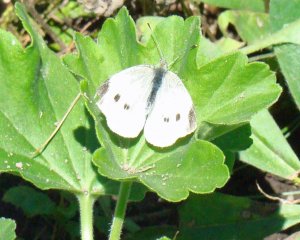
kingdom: Animalia
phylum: Arthropoda
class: Insecta
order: Lepidoptera
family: Pieridae
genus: Pieris
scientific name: Pieris rapae
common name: Cabbage White
